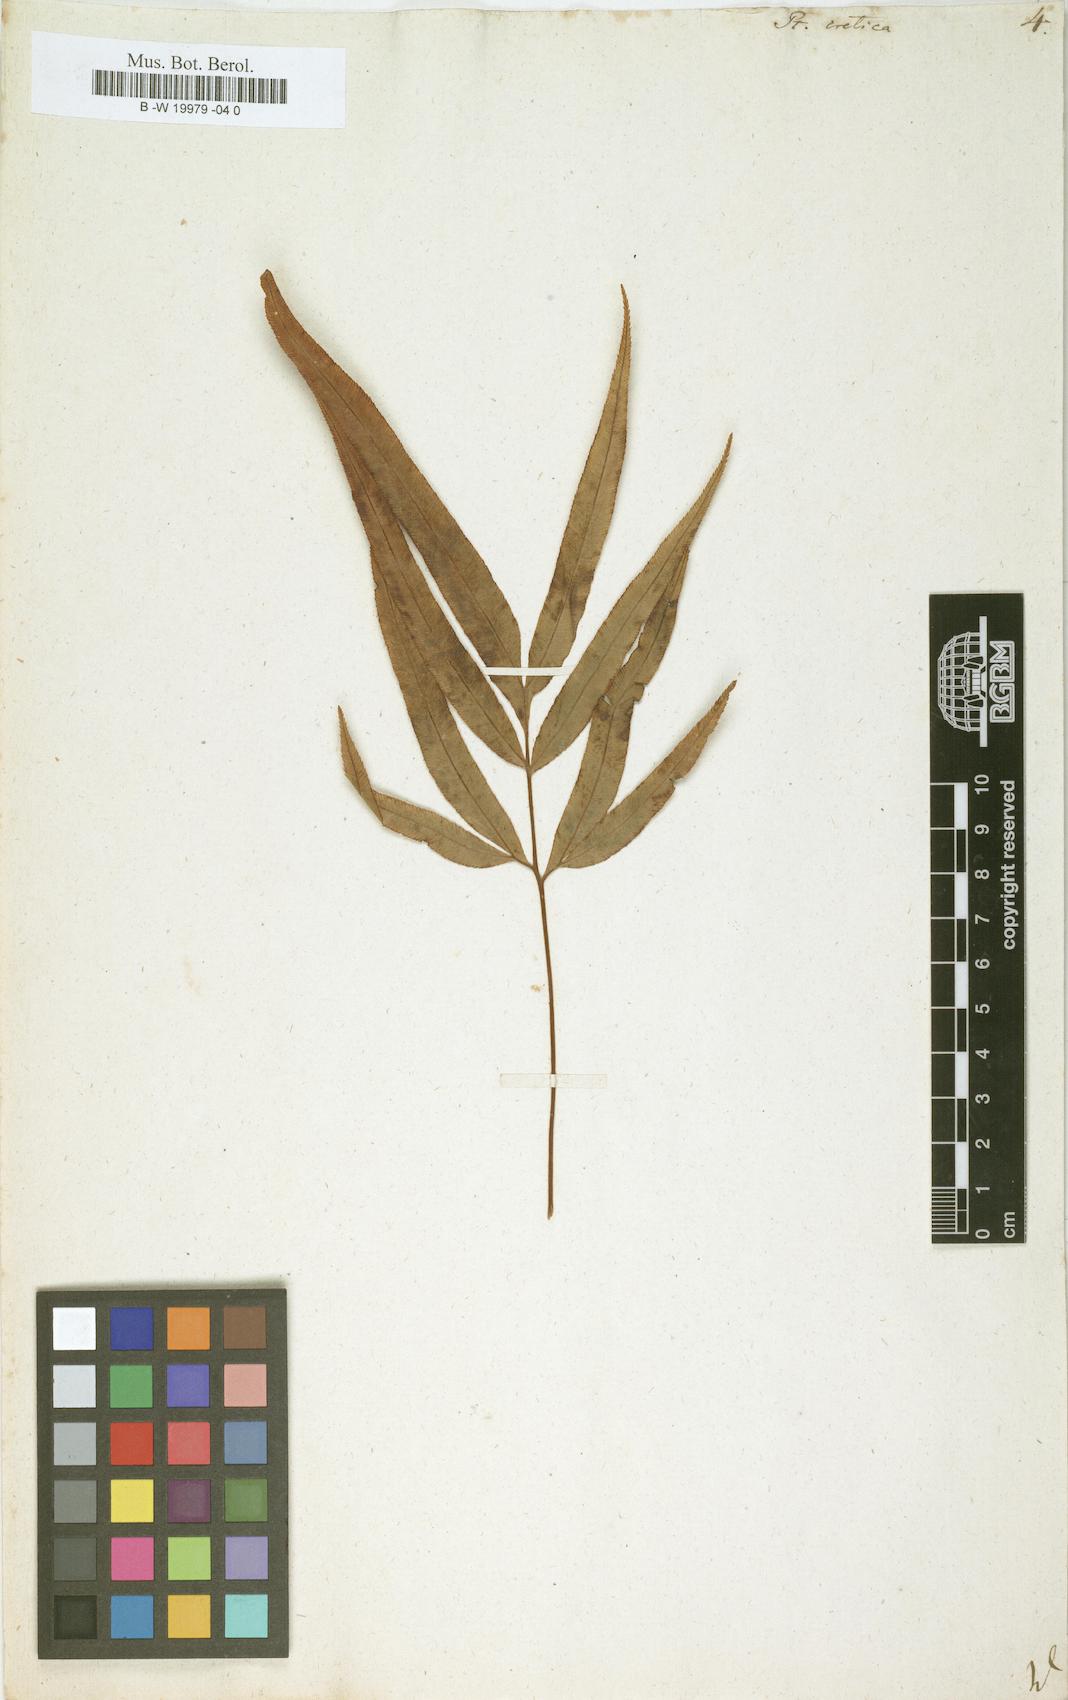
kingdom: Plantae
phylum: Tracheophyta
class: Polypodiopsida
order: Polypodiales
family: Pteridaceae
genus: Pteris
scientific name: Pteris cretica
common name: Ribbon fern
